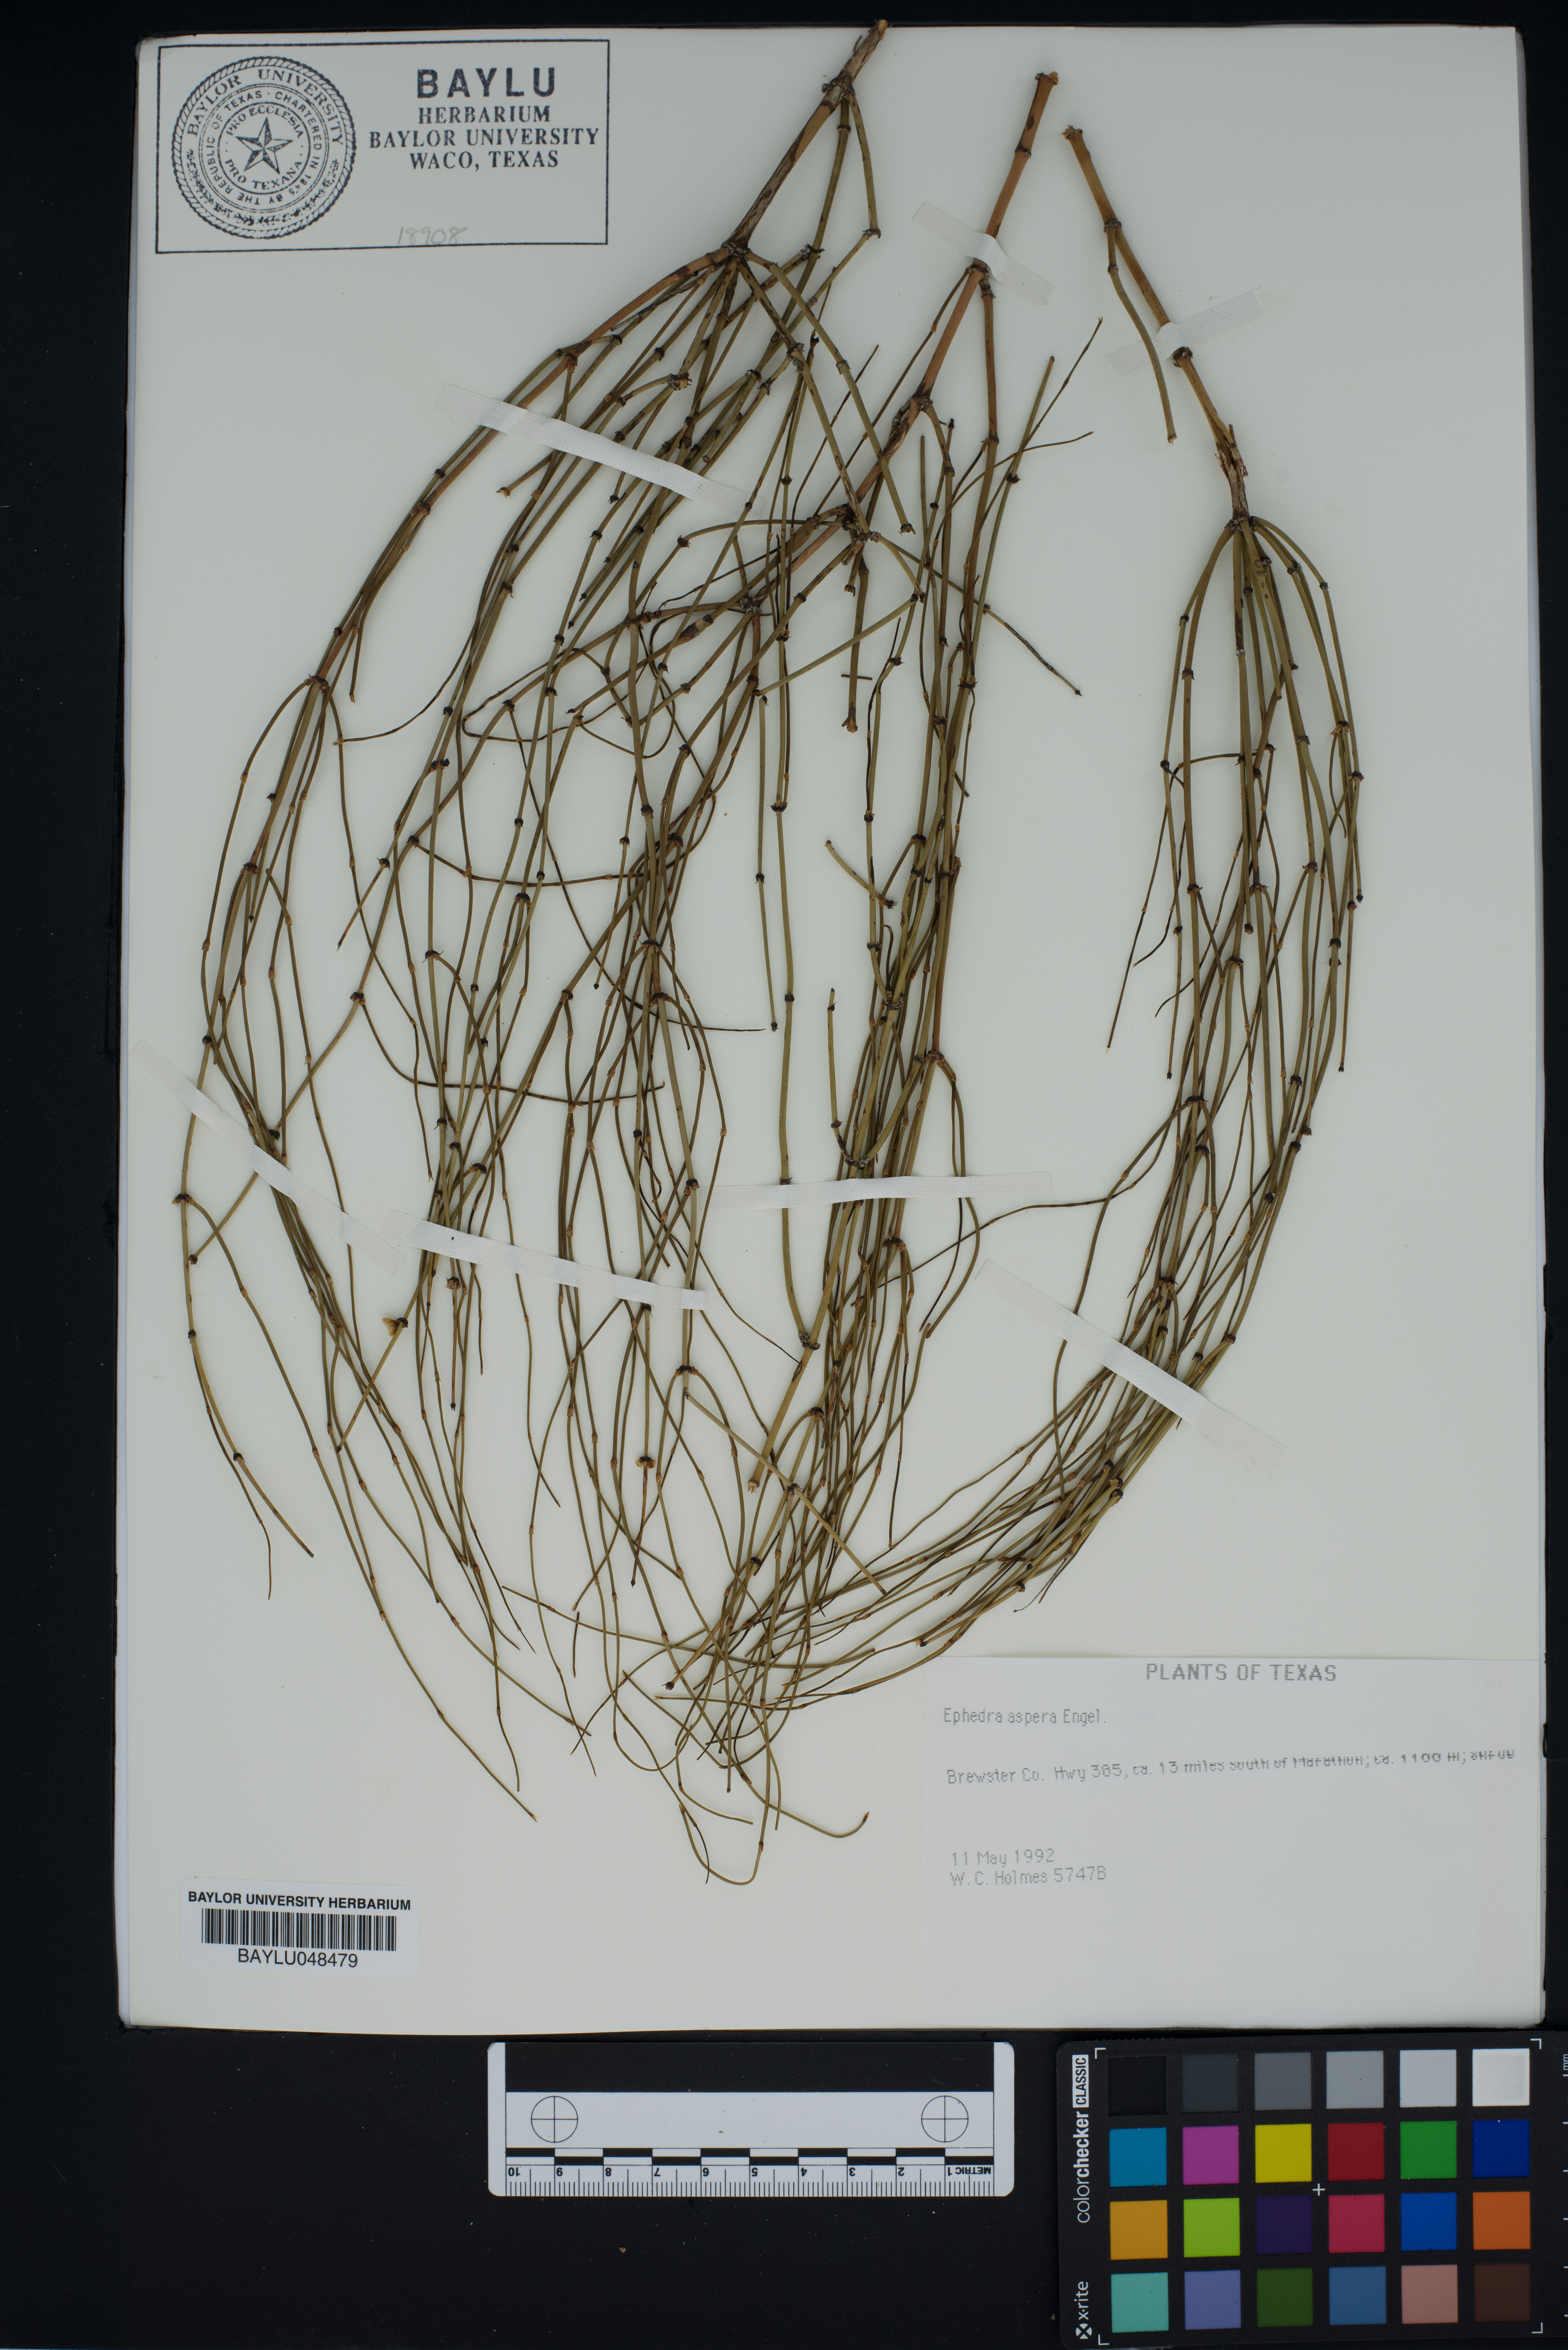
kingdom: Plantae
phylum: Tracheophyta
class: Gnetopsida
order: Ephedrales
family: Ephedraceae
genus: Ephedra
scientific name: Ephedra aspera
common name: Boundary ephedra
